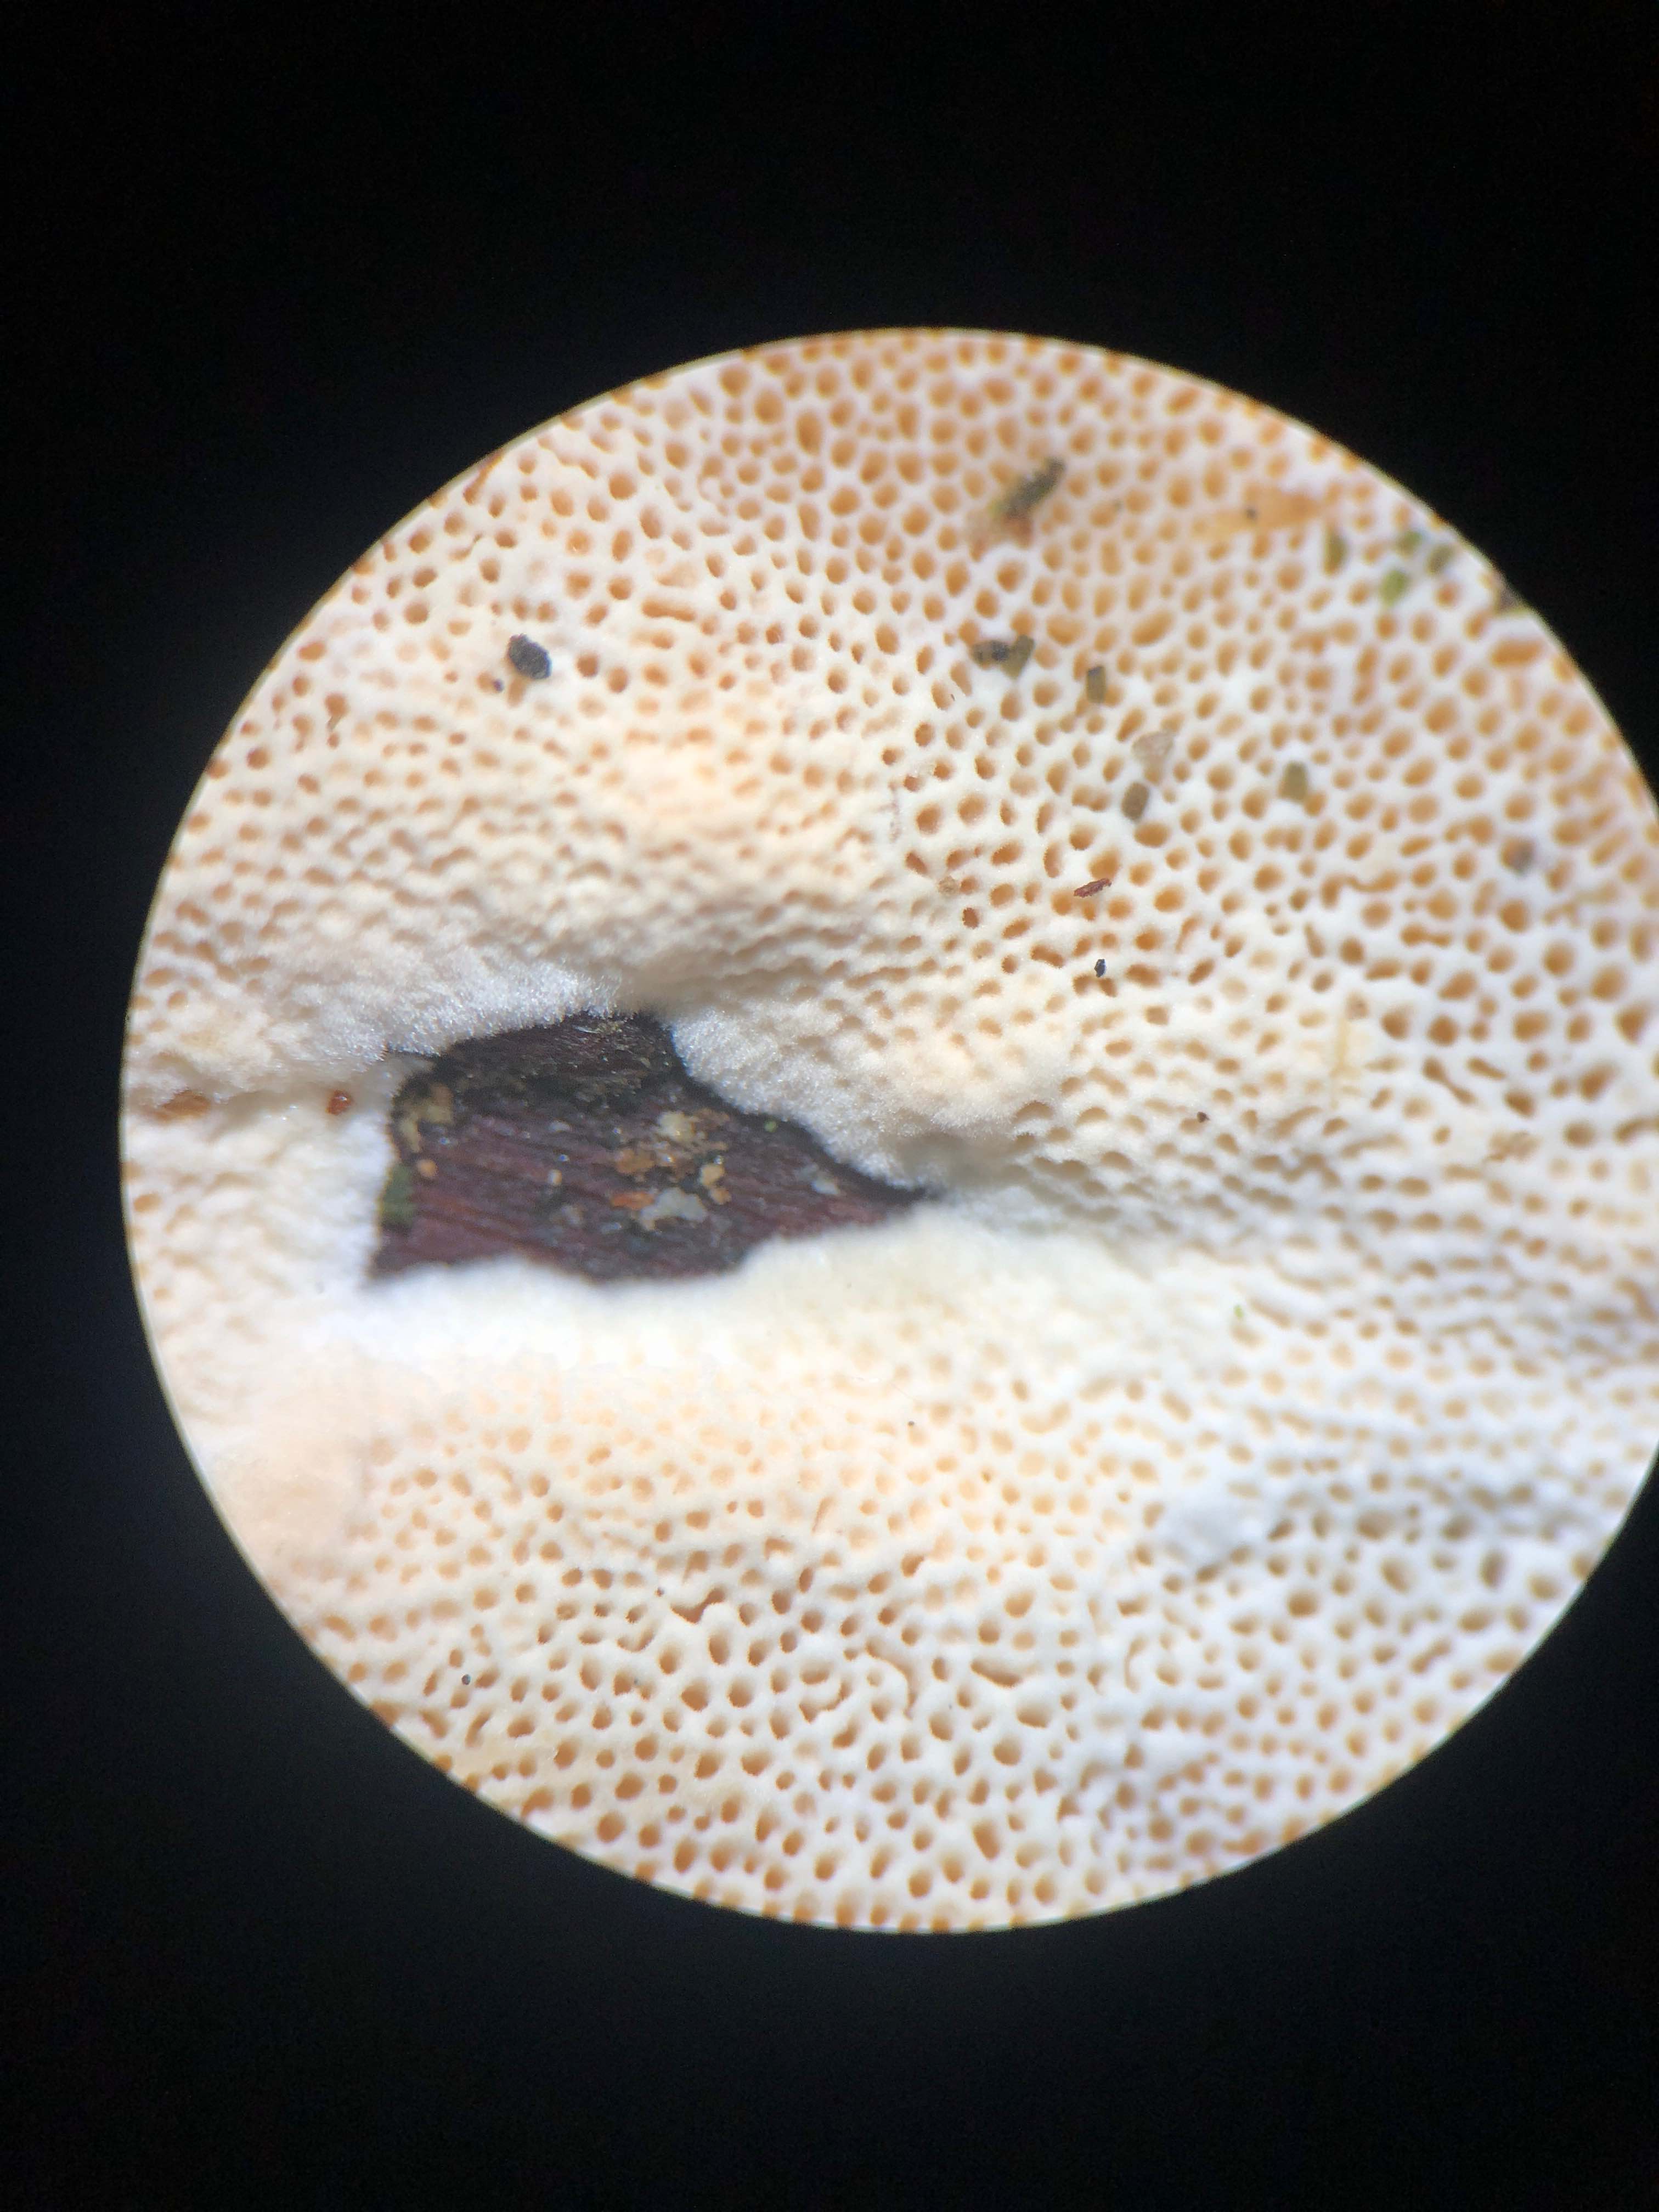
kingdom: Fungi
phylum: Basidiomycota
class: Agaricomycetes
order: Polyporales
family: Steccherinaceae
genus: Junghuhnia
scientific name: Junghuhnia nitida
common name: almindelig skønporesvamp
